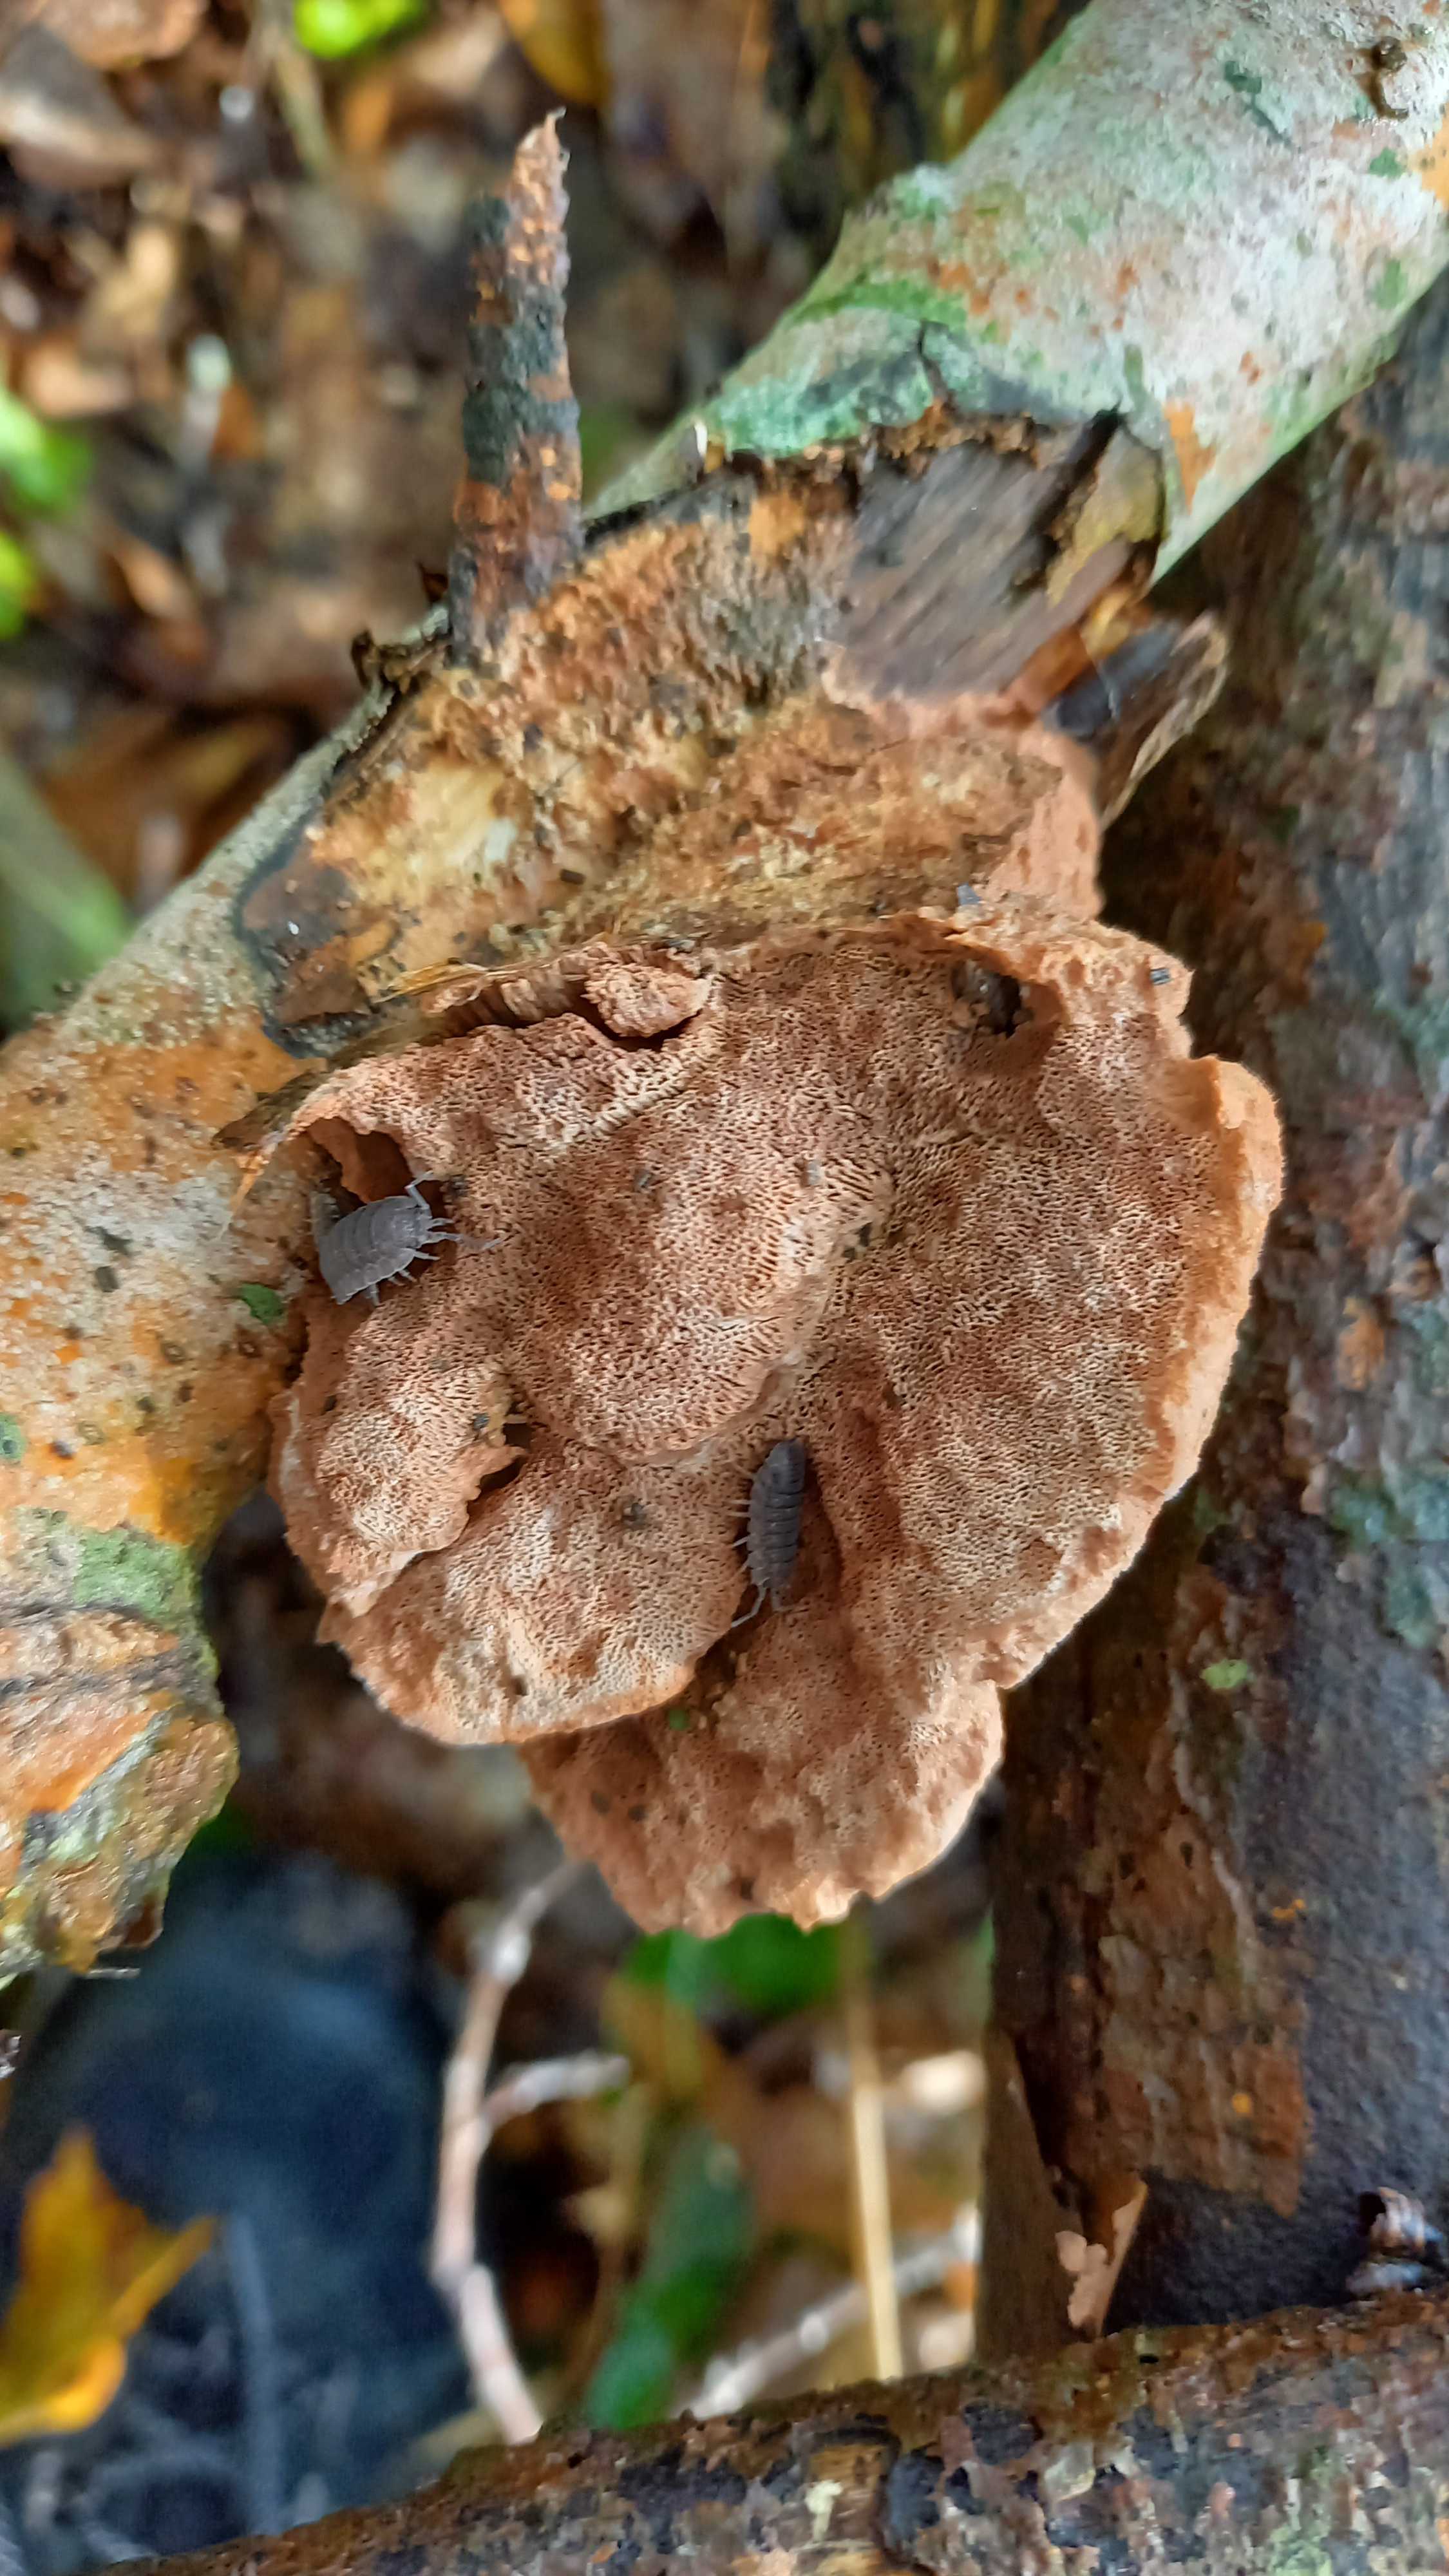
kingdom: Fungi
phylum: Basidiomycota
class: Agaricomycetes
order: Polyporales
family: Phanerochaetaceae
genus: Hapalopilus
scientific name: Hapalopilus rutilans
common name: rødlig okkerporesvamp
